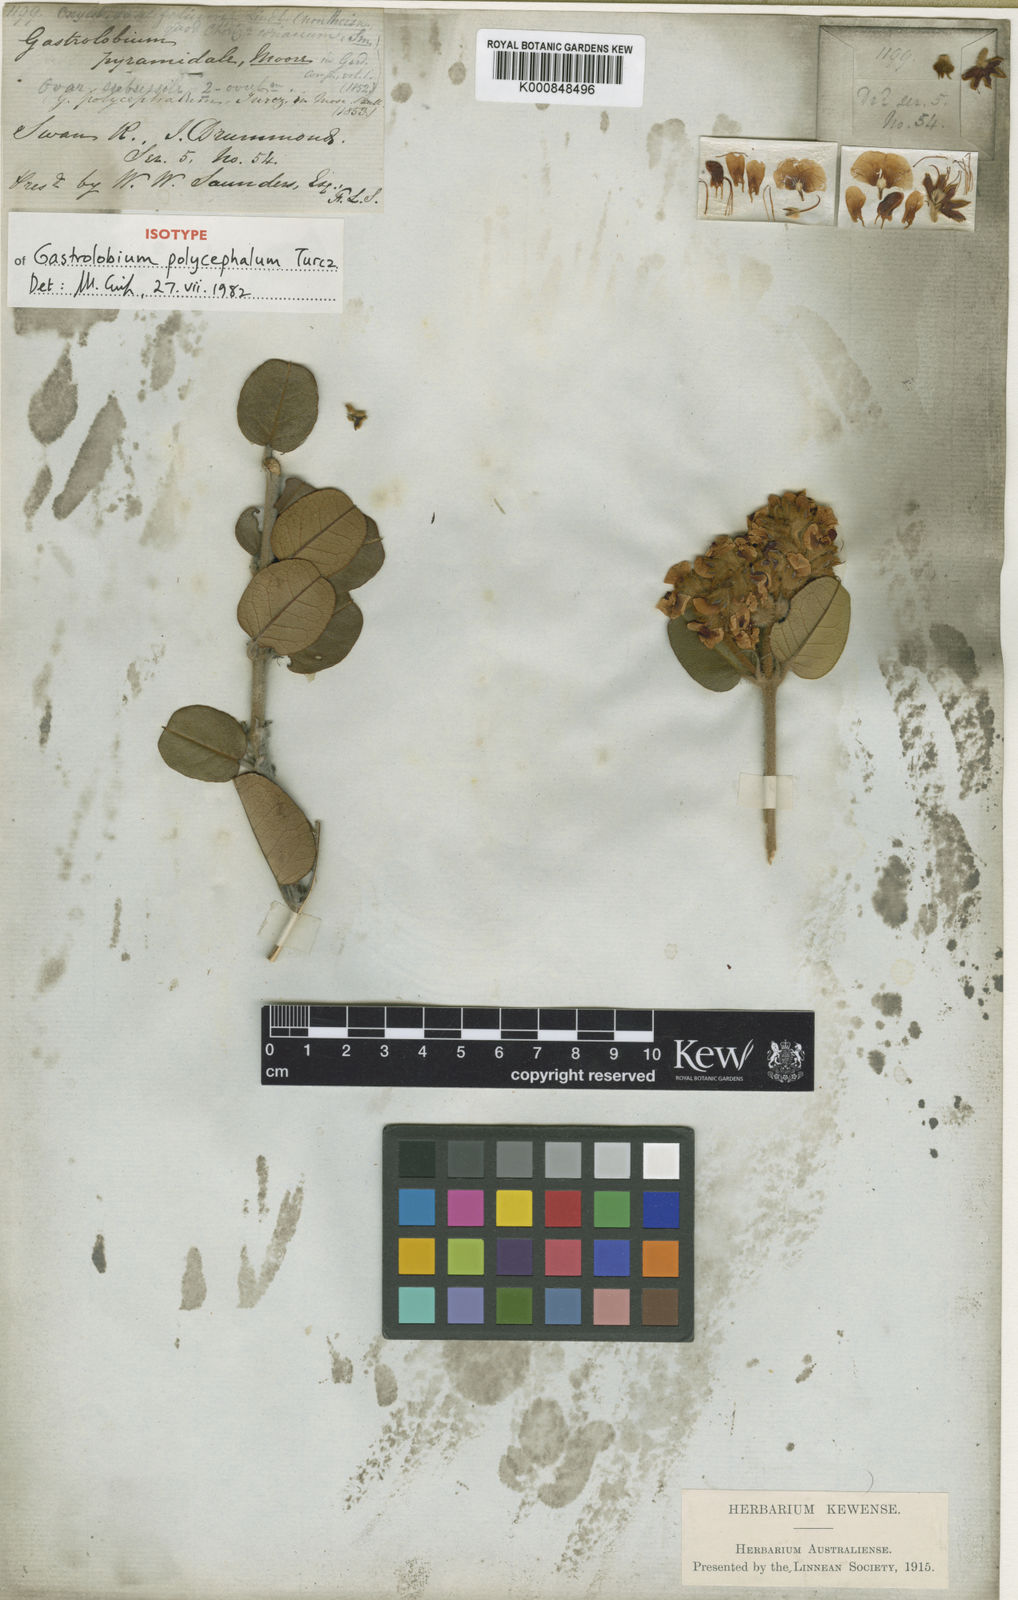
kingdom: Plantae
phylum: Tracheophyta
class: Magnoliopsida
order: Fabales
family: Fabaceae
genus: Gastrolobium
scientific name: Gastrolobium pyramidale
